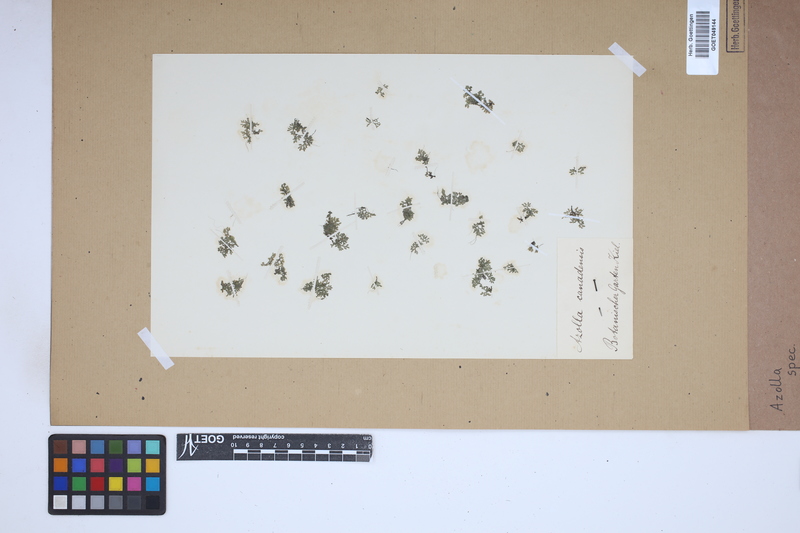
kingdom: Plantae
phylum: Tracheophyta
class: Polypodiopsida
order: Salviniales
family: Salviniaceae
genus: Azolla
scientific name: Azolla
